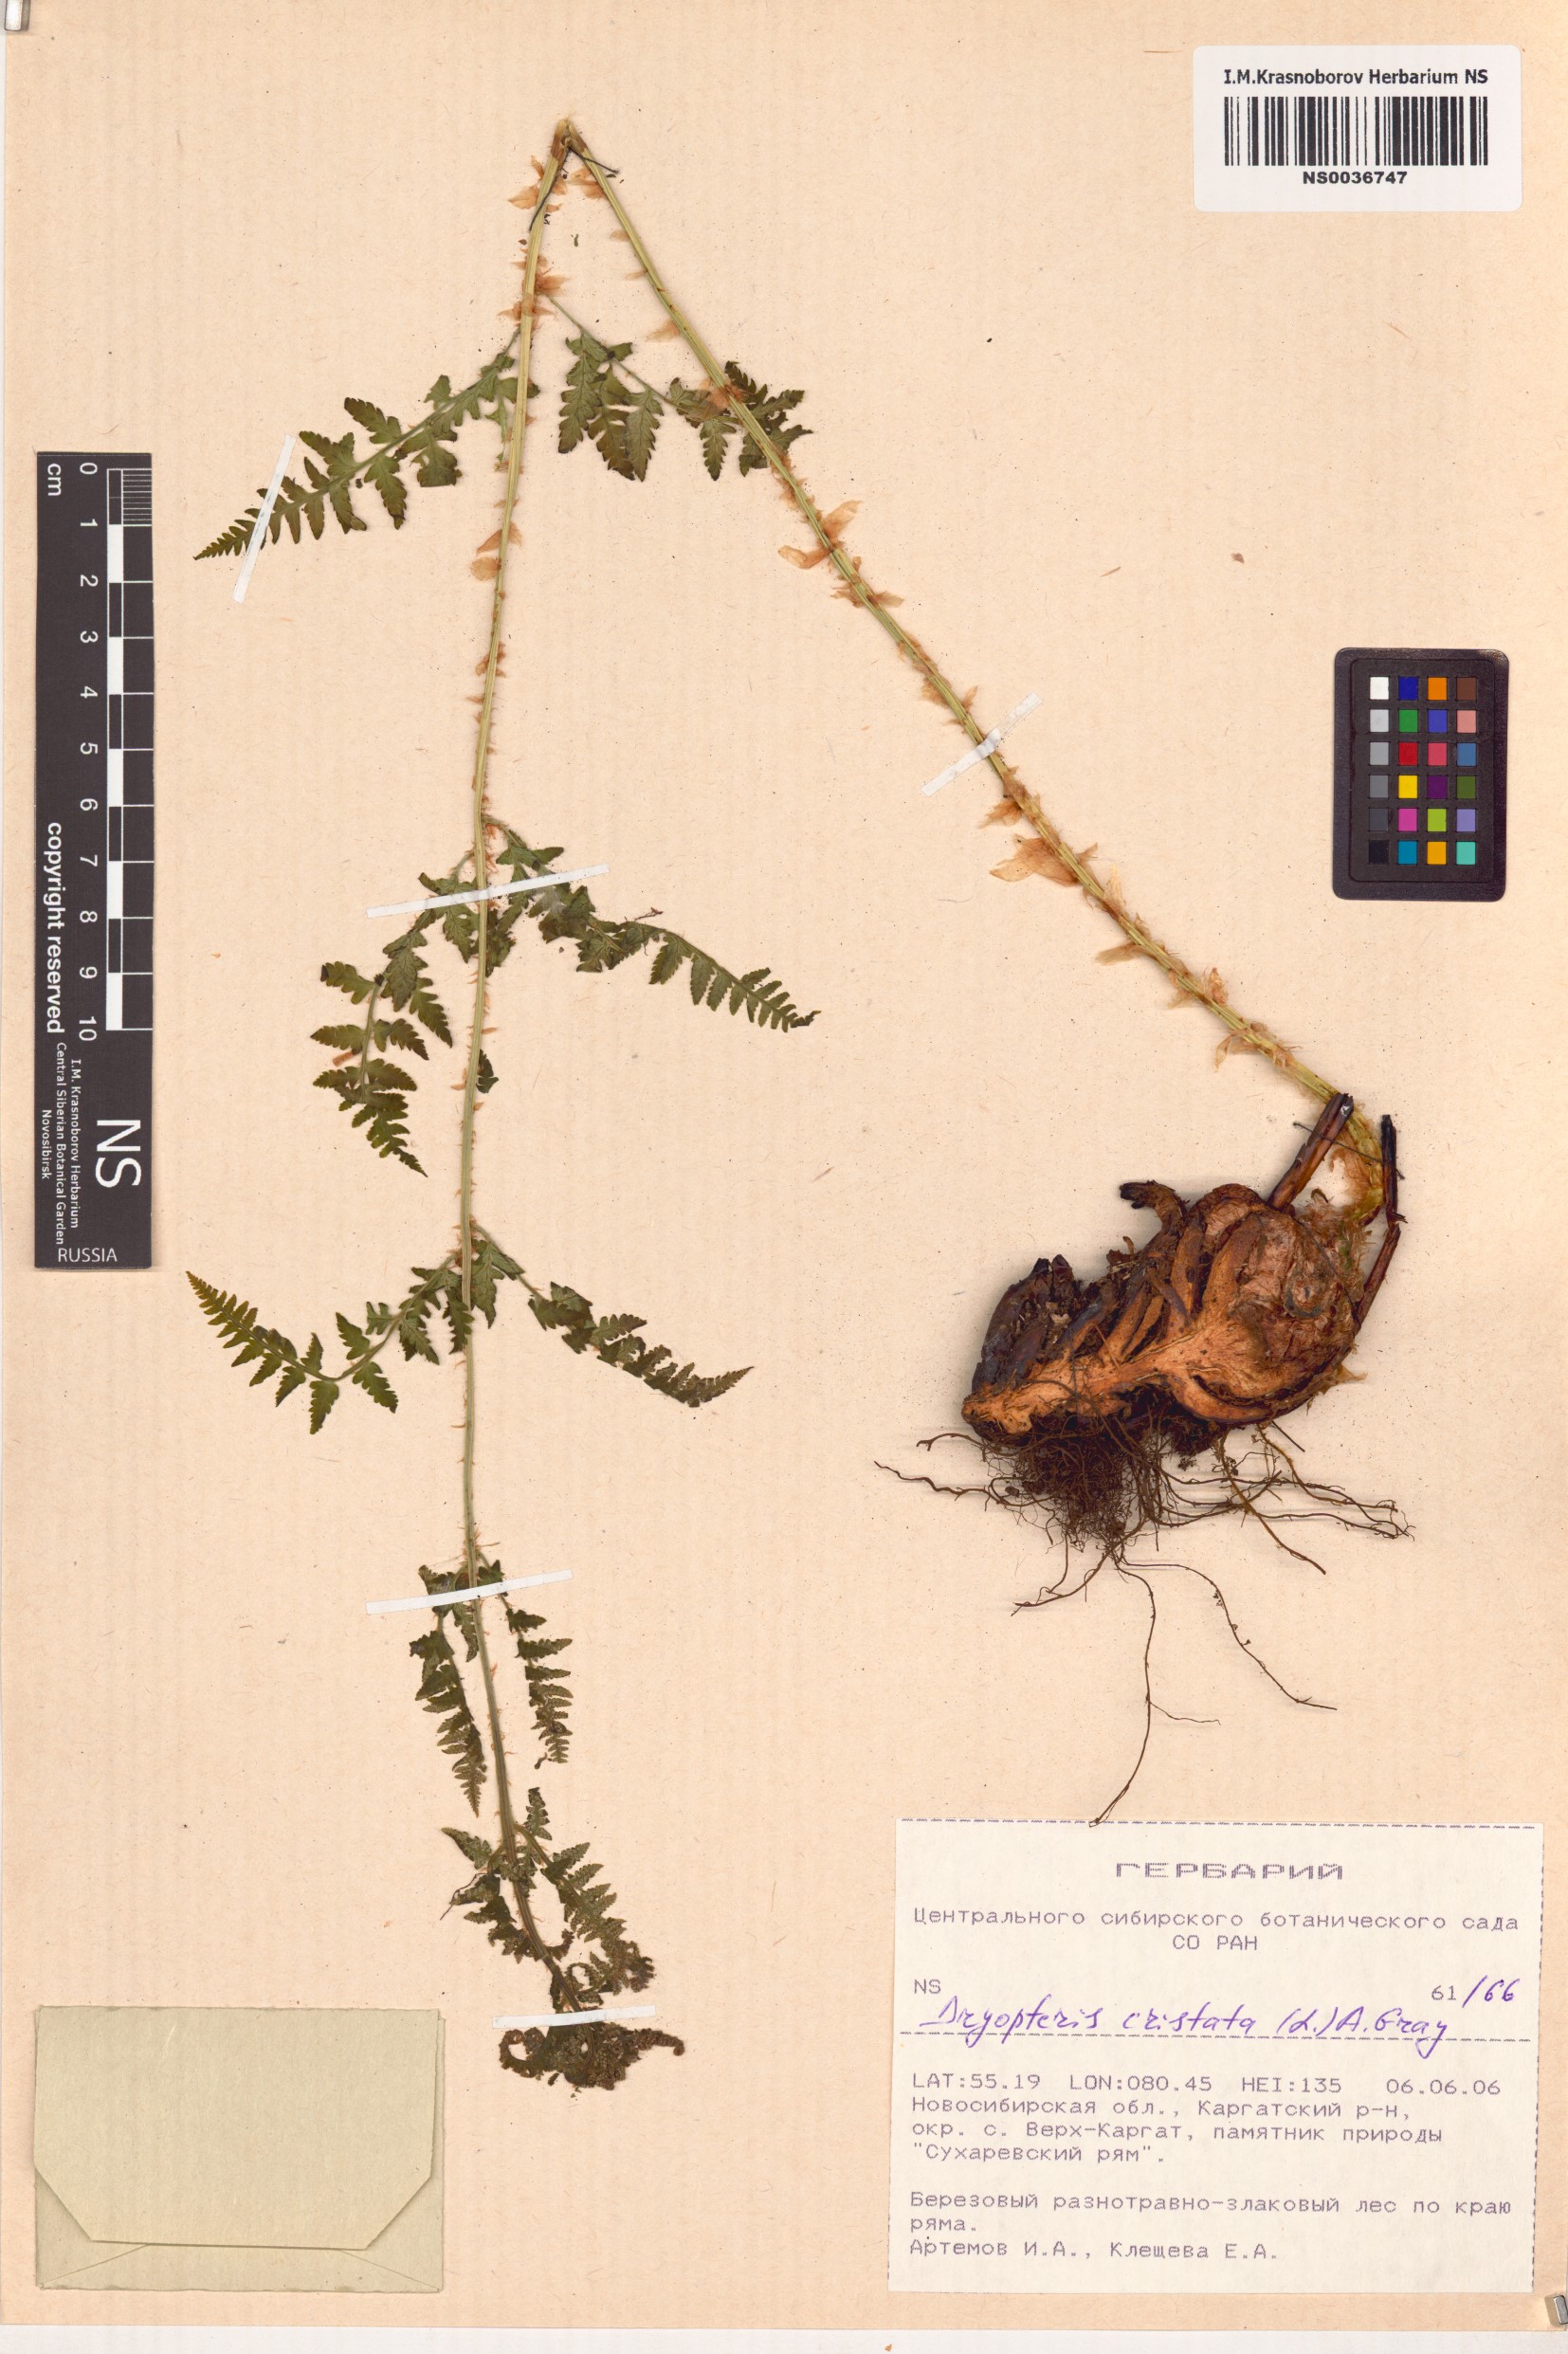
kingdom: Plantae
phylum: Tracheophyta
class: Polypodiopsida
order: Polypodiales
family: Dryopteridaceae
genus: Dryopteris
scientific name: Dryopteris cristata
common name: Crested wood fern
